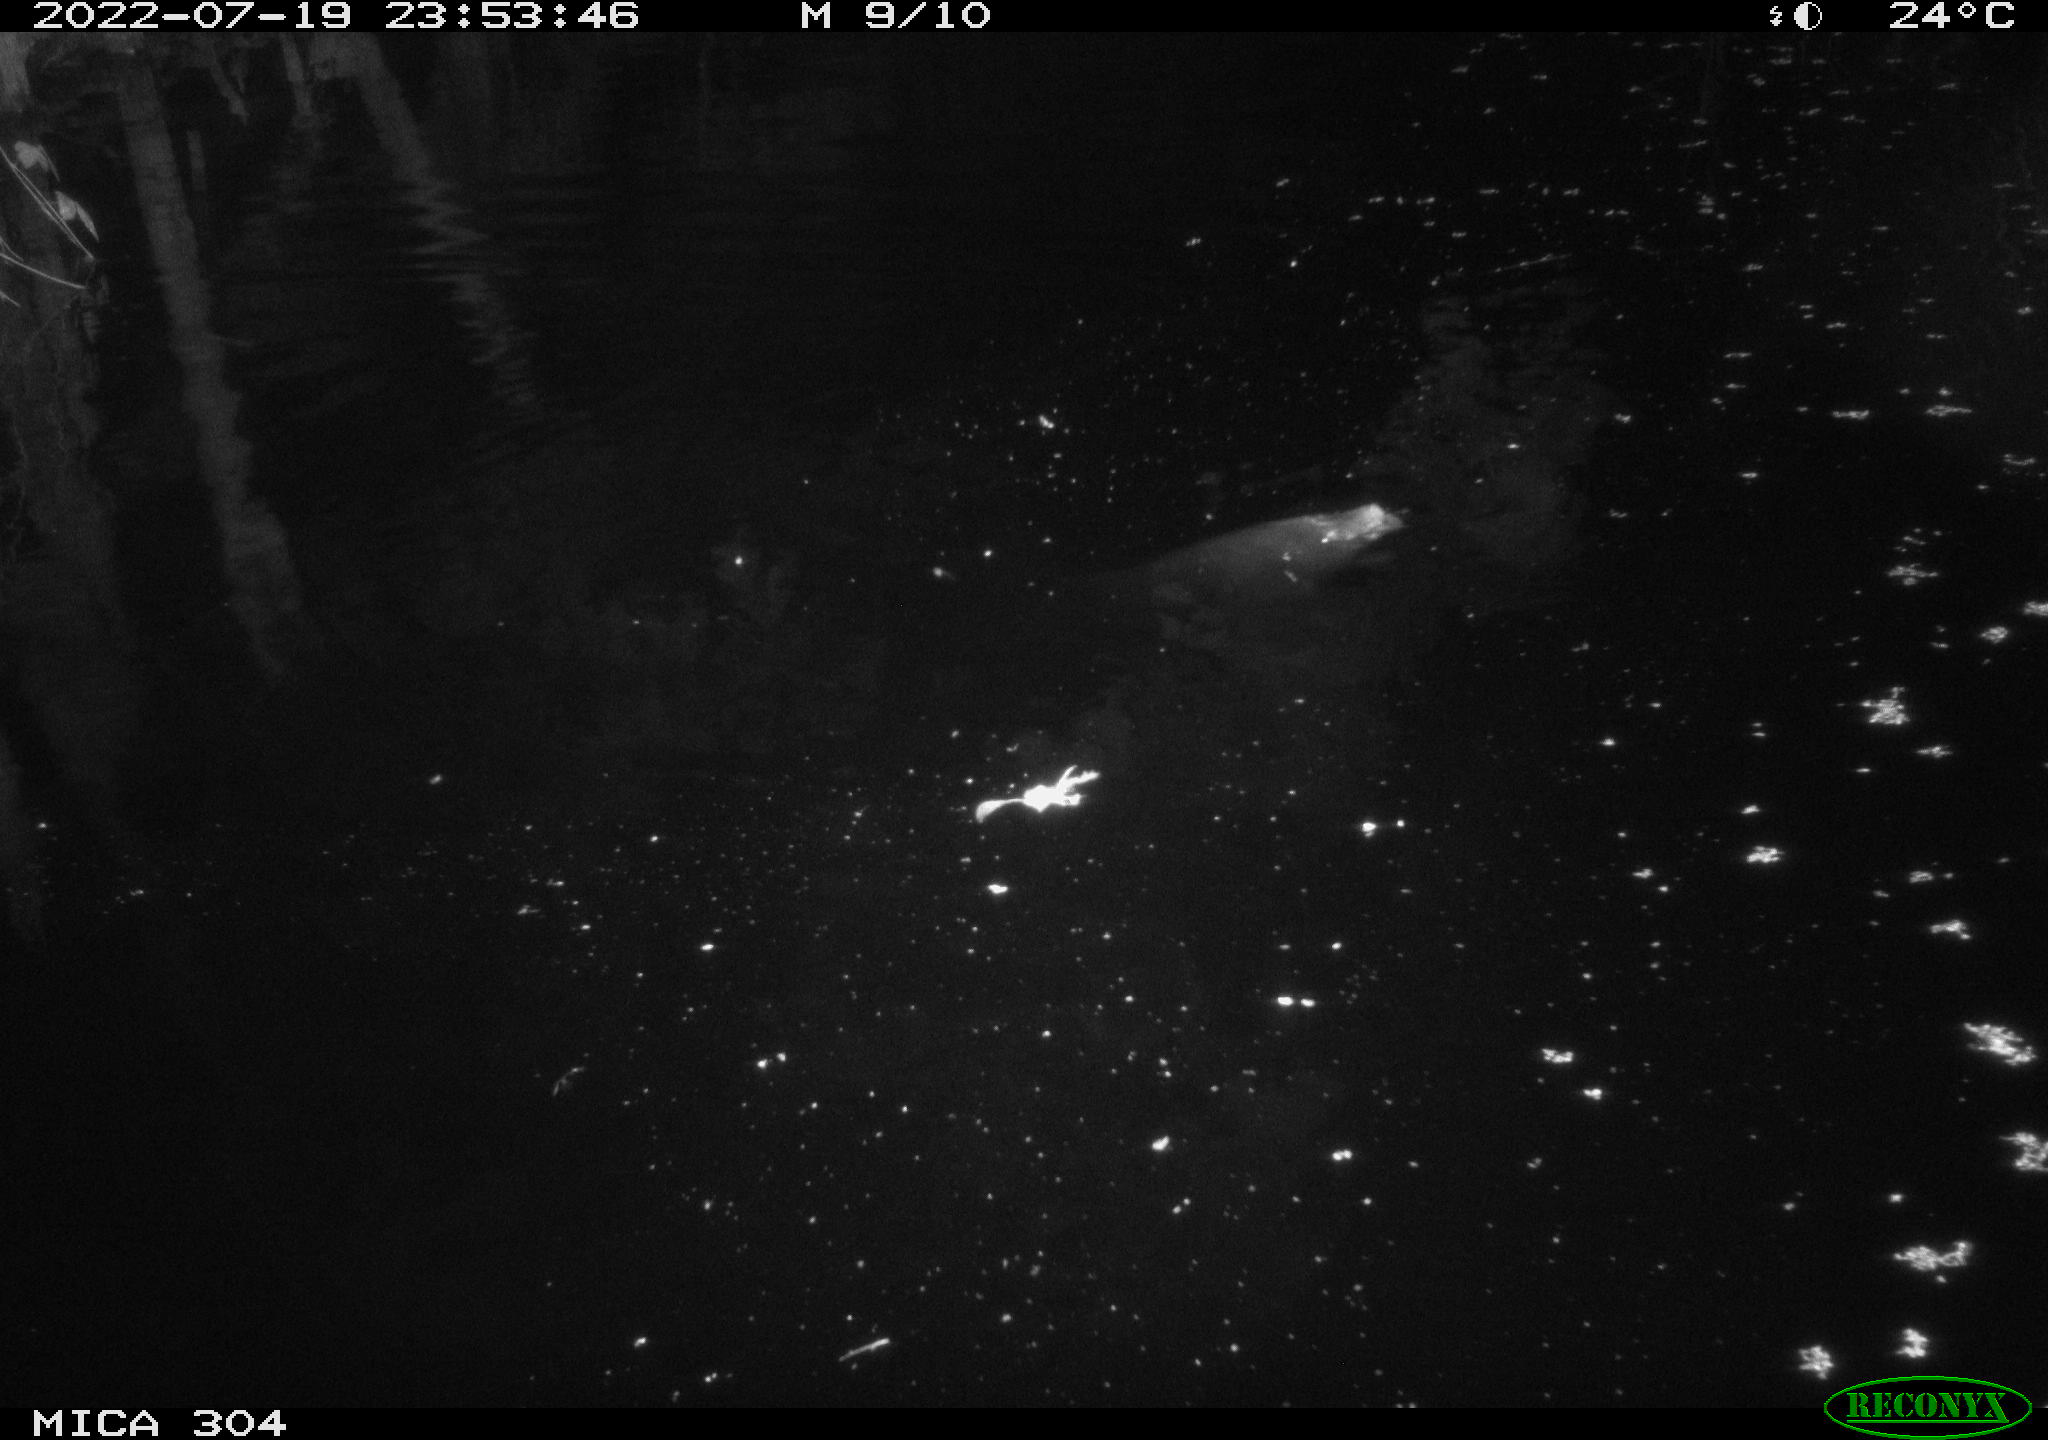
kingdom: Animalia
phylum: Chordata
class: Mammalia
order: Rodentia
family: Muridae
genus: Rattus
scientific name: Rattus norvegicus
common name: Brown rat
